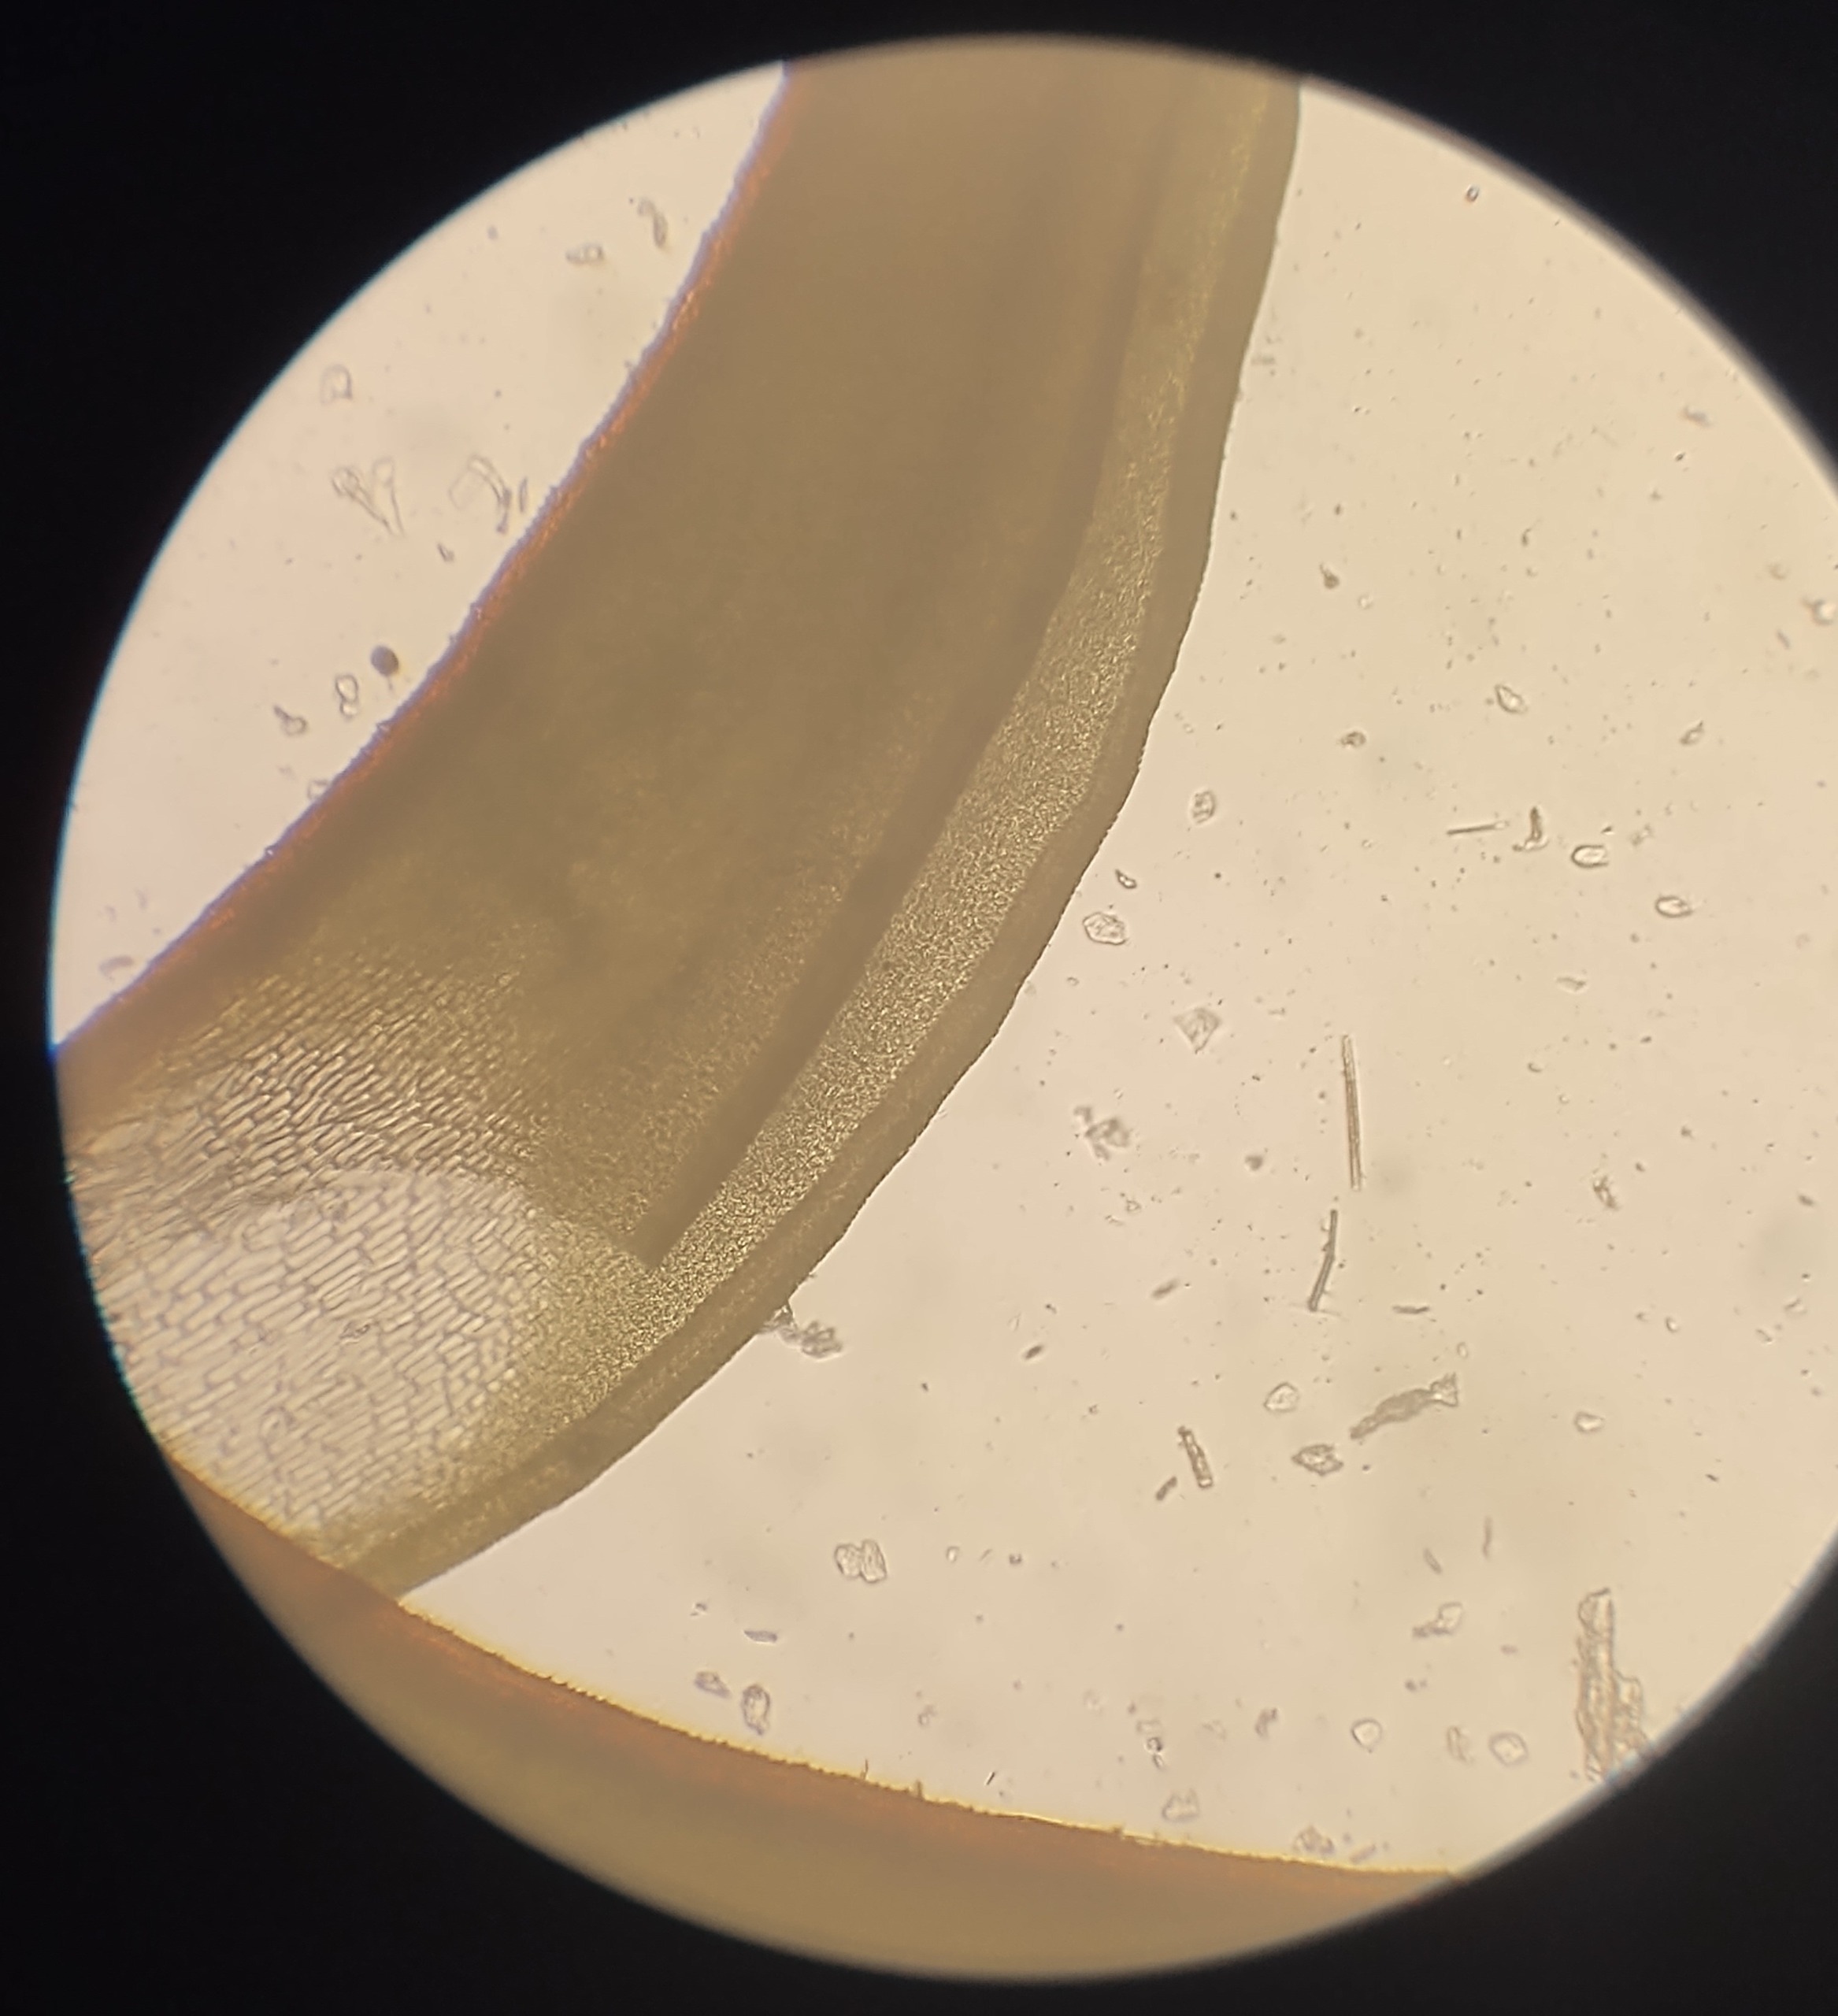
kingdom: Plantae
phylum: Bryophyta
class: Bryopsida
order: Pottiales
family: Pottiaceae
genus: Syntrichia
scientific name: Syntrichia ruralis
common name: Spidsbladet hårstjerne
